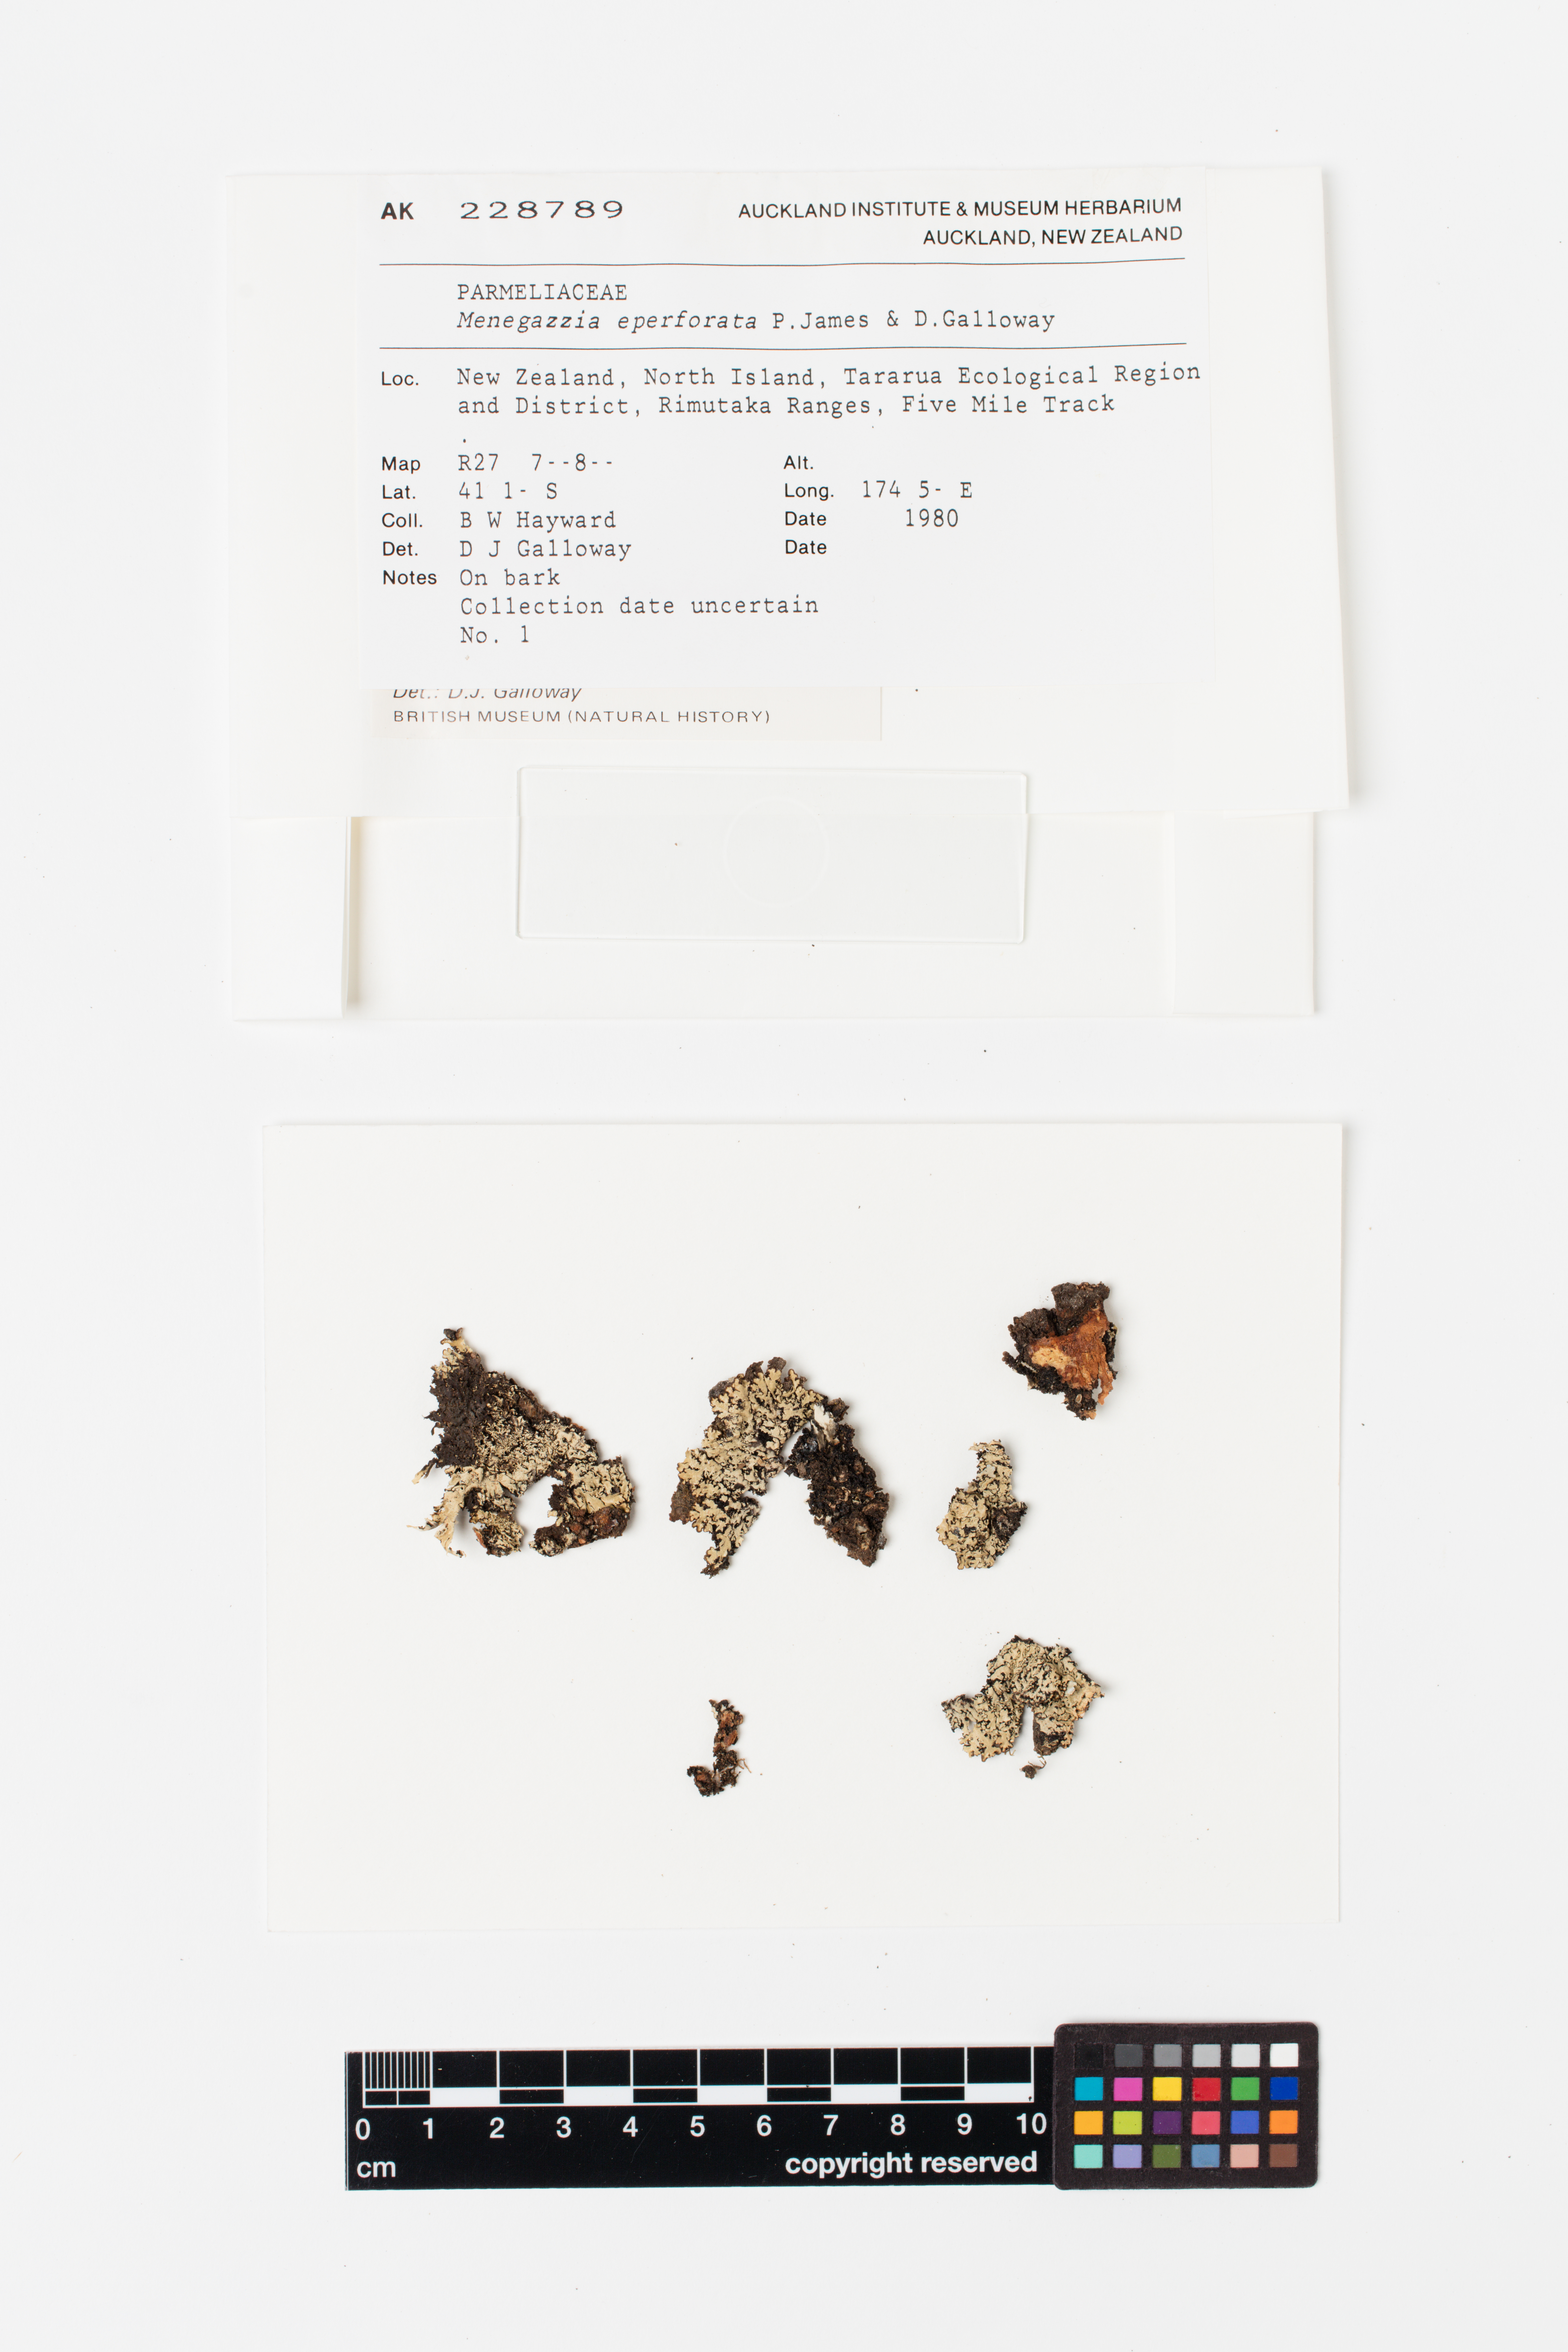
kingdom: Fungi
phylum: Ascomycota
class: Lecanoromycetes
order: Lecanorales
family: Parmeliaceae
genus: Menegazzia
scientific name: Menegazzia eperforata
